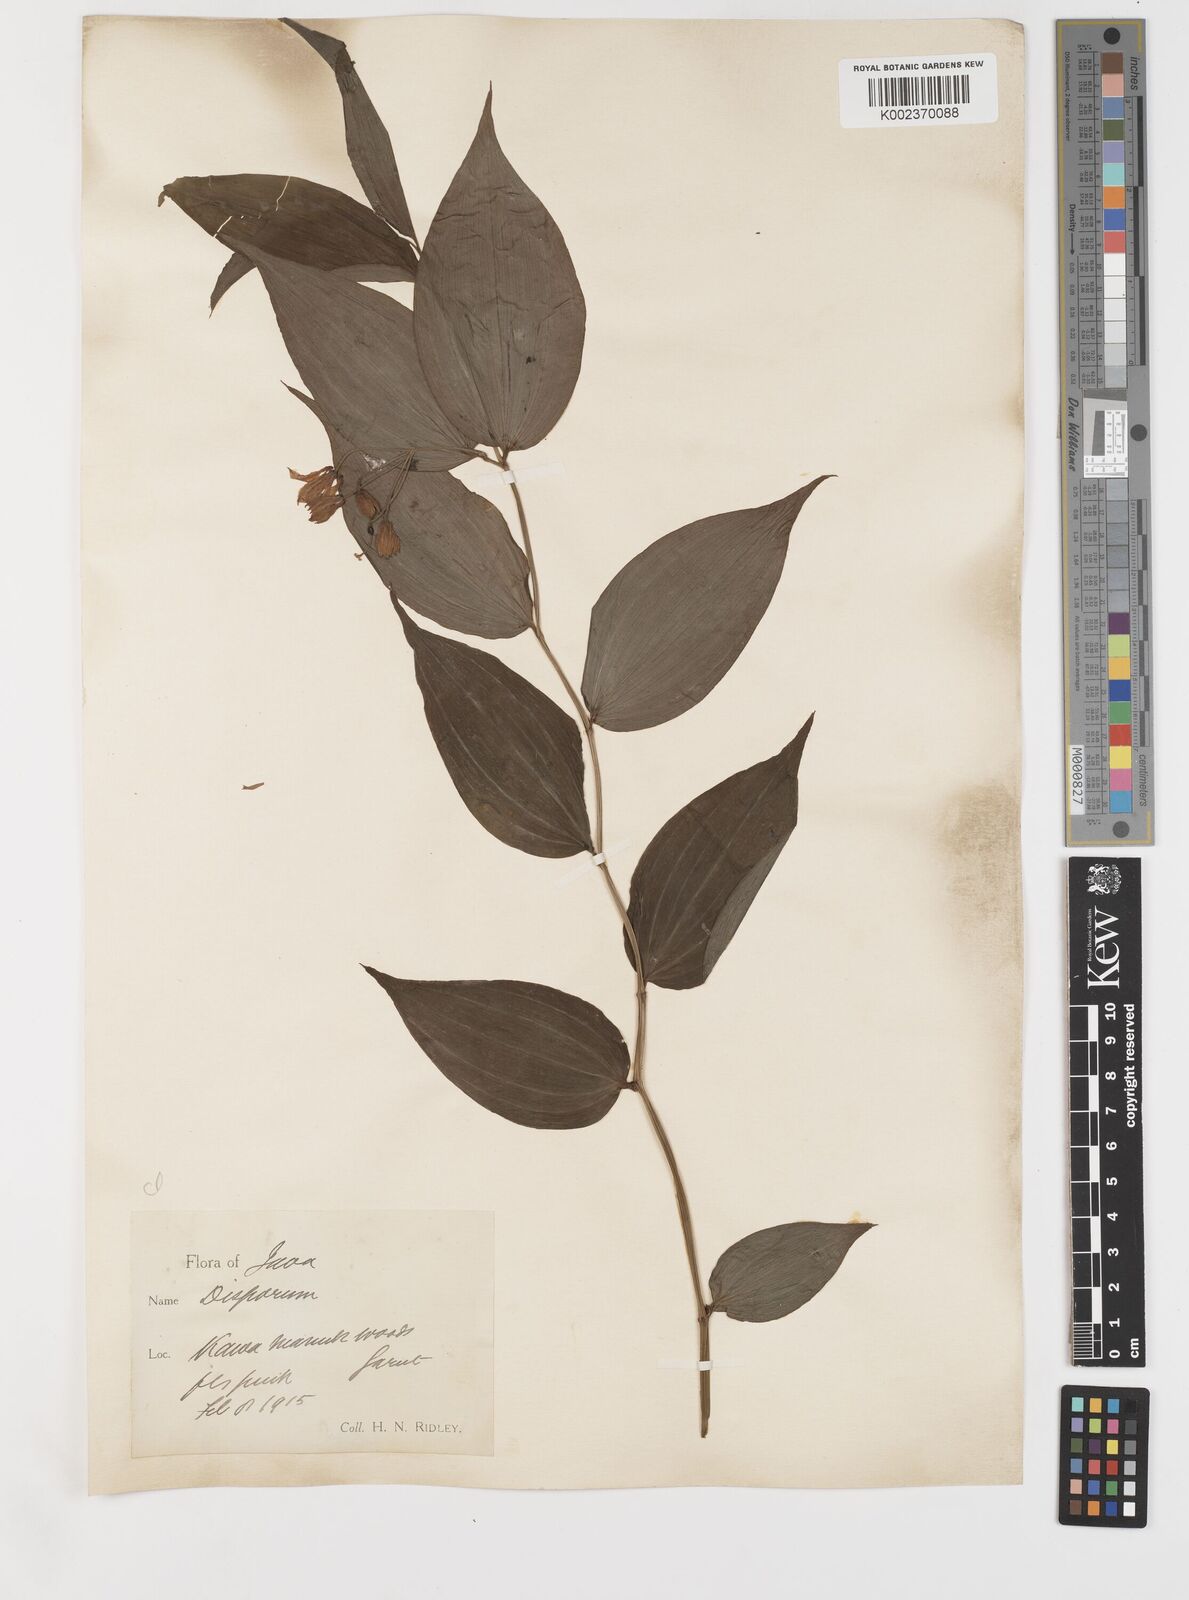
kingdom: Plantae
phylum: Tracheophyta
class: Liliopsida
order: Liliales
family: Colchicaceae
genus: Disporum
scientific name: Disporum cantoniense
